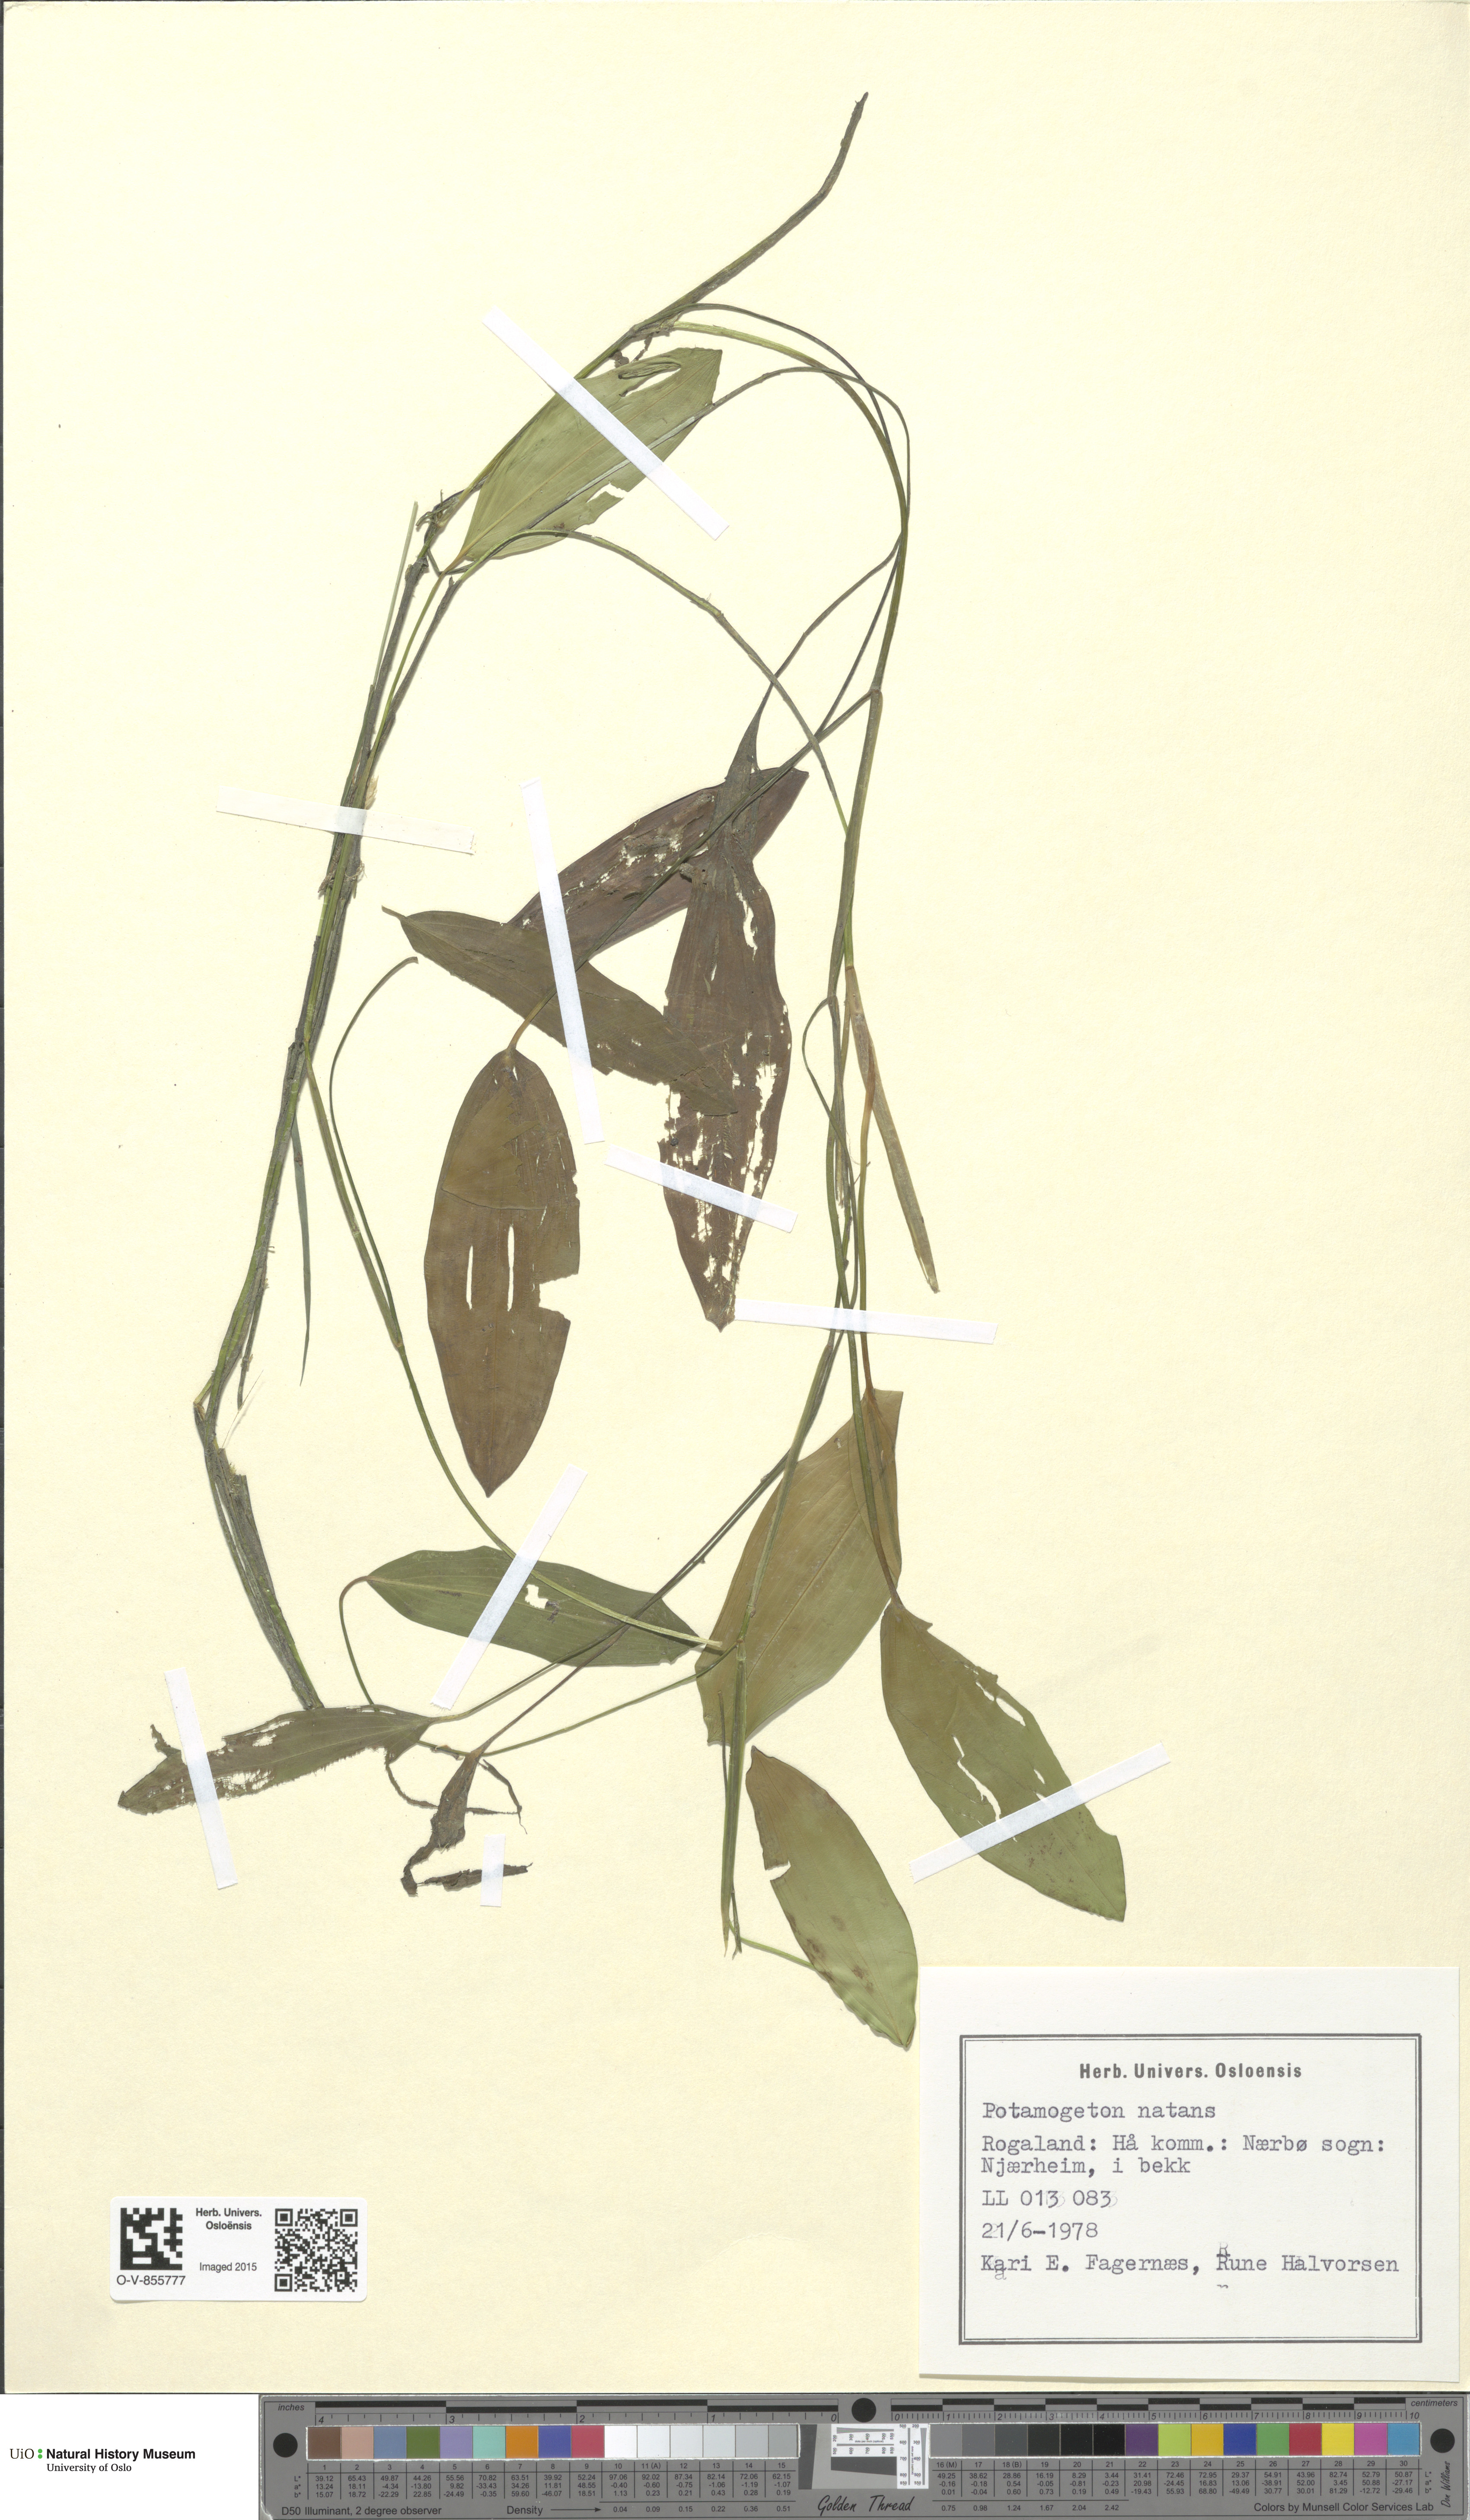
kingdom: Plantae
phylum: Tracheophyta
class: Liliopsida
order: Alismatales
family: Potamogetonaceae
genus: Potamogeton
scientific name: Potamogeton natans
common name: Broad-leaved pondweed
